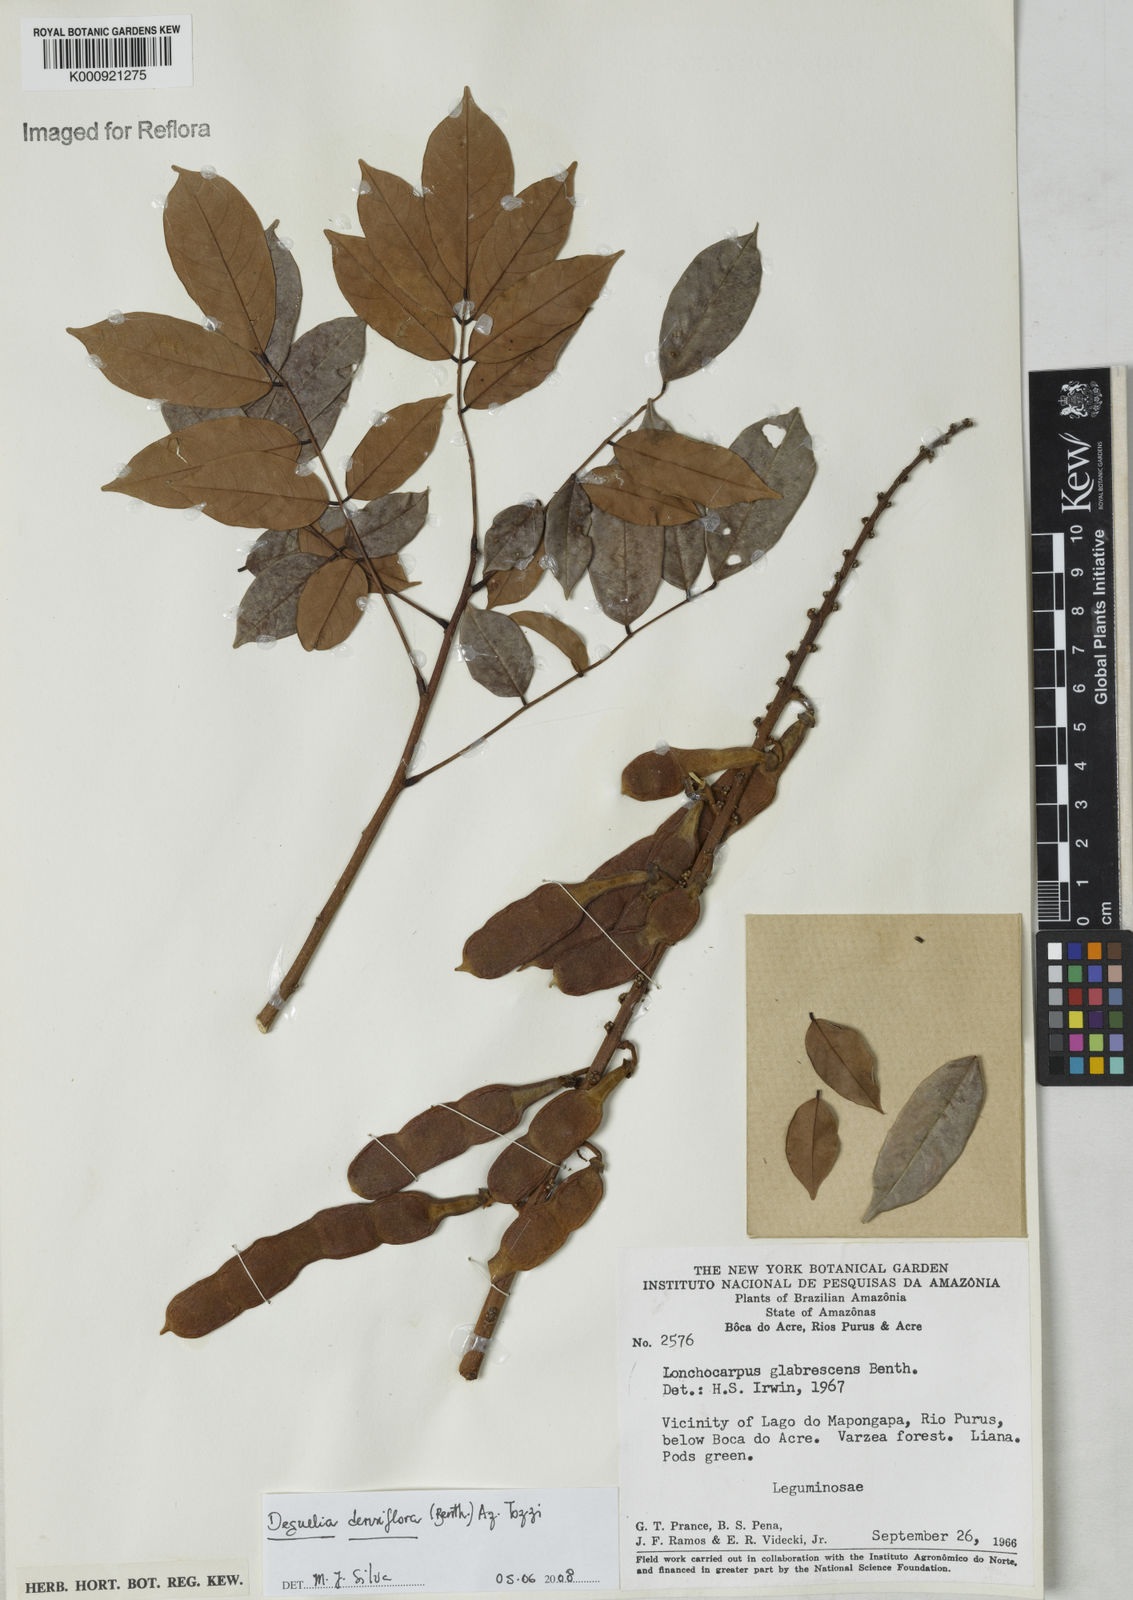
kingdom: Plantae
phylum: Tracheophyta
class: Magnoliopsida
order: Fabales
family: Fabaceae
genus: Deguelia
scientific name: Deguelia
